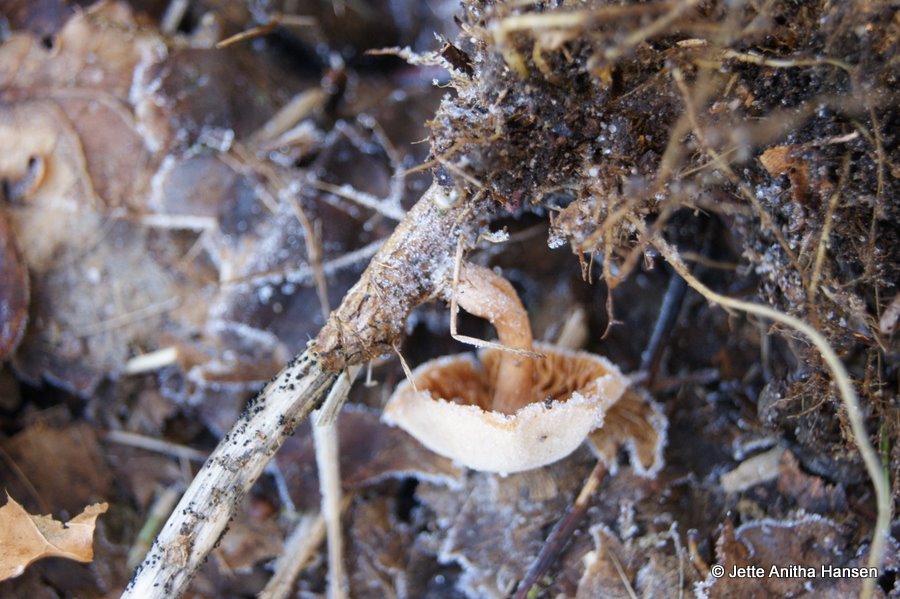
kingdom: Fungi
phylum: Basidiomycota
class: Agaricomycetes
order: Agaricales
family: Tubariaceae
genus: Tubaria
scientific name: Tubaria furfuracea
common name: kliddet fnughat
